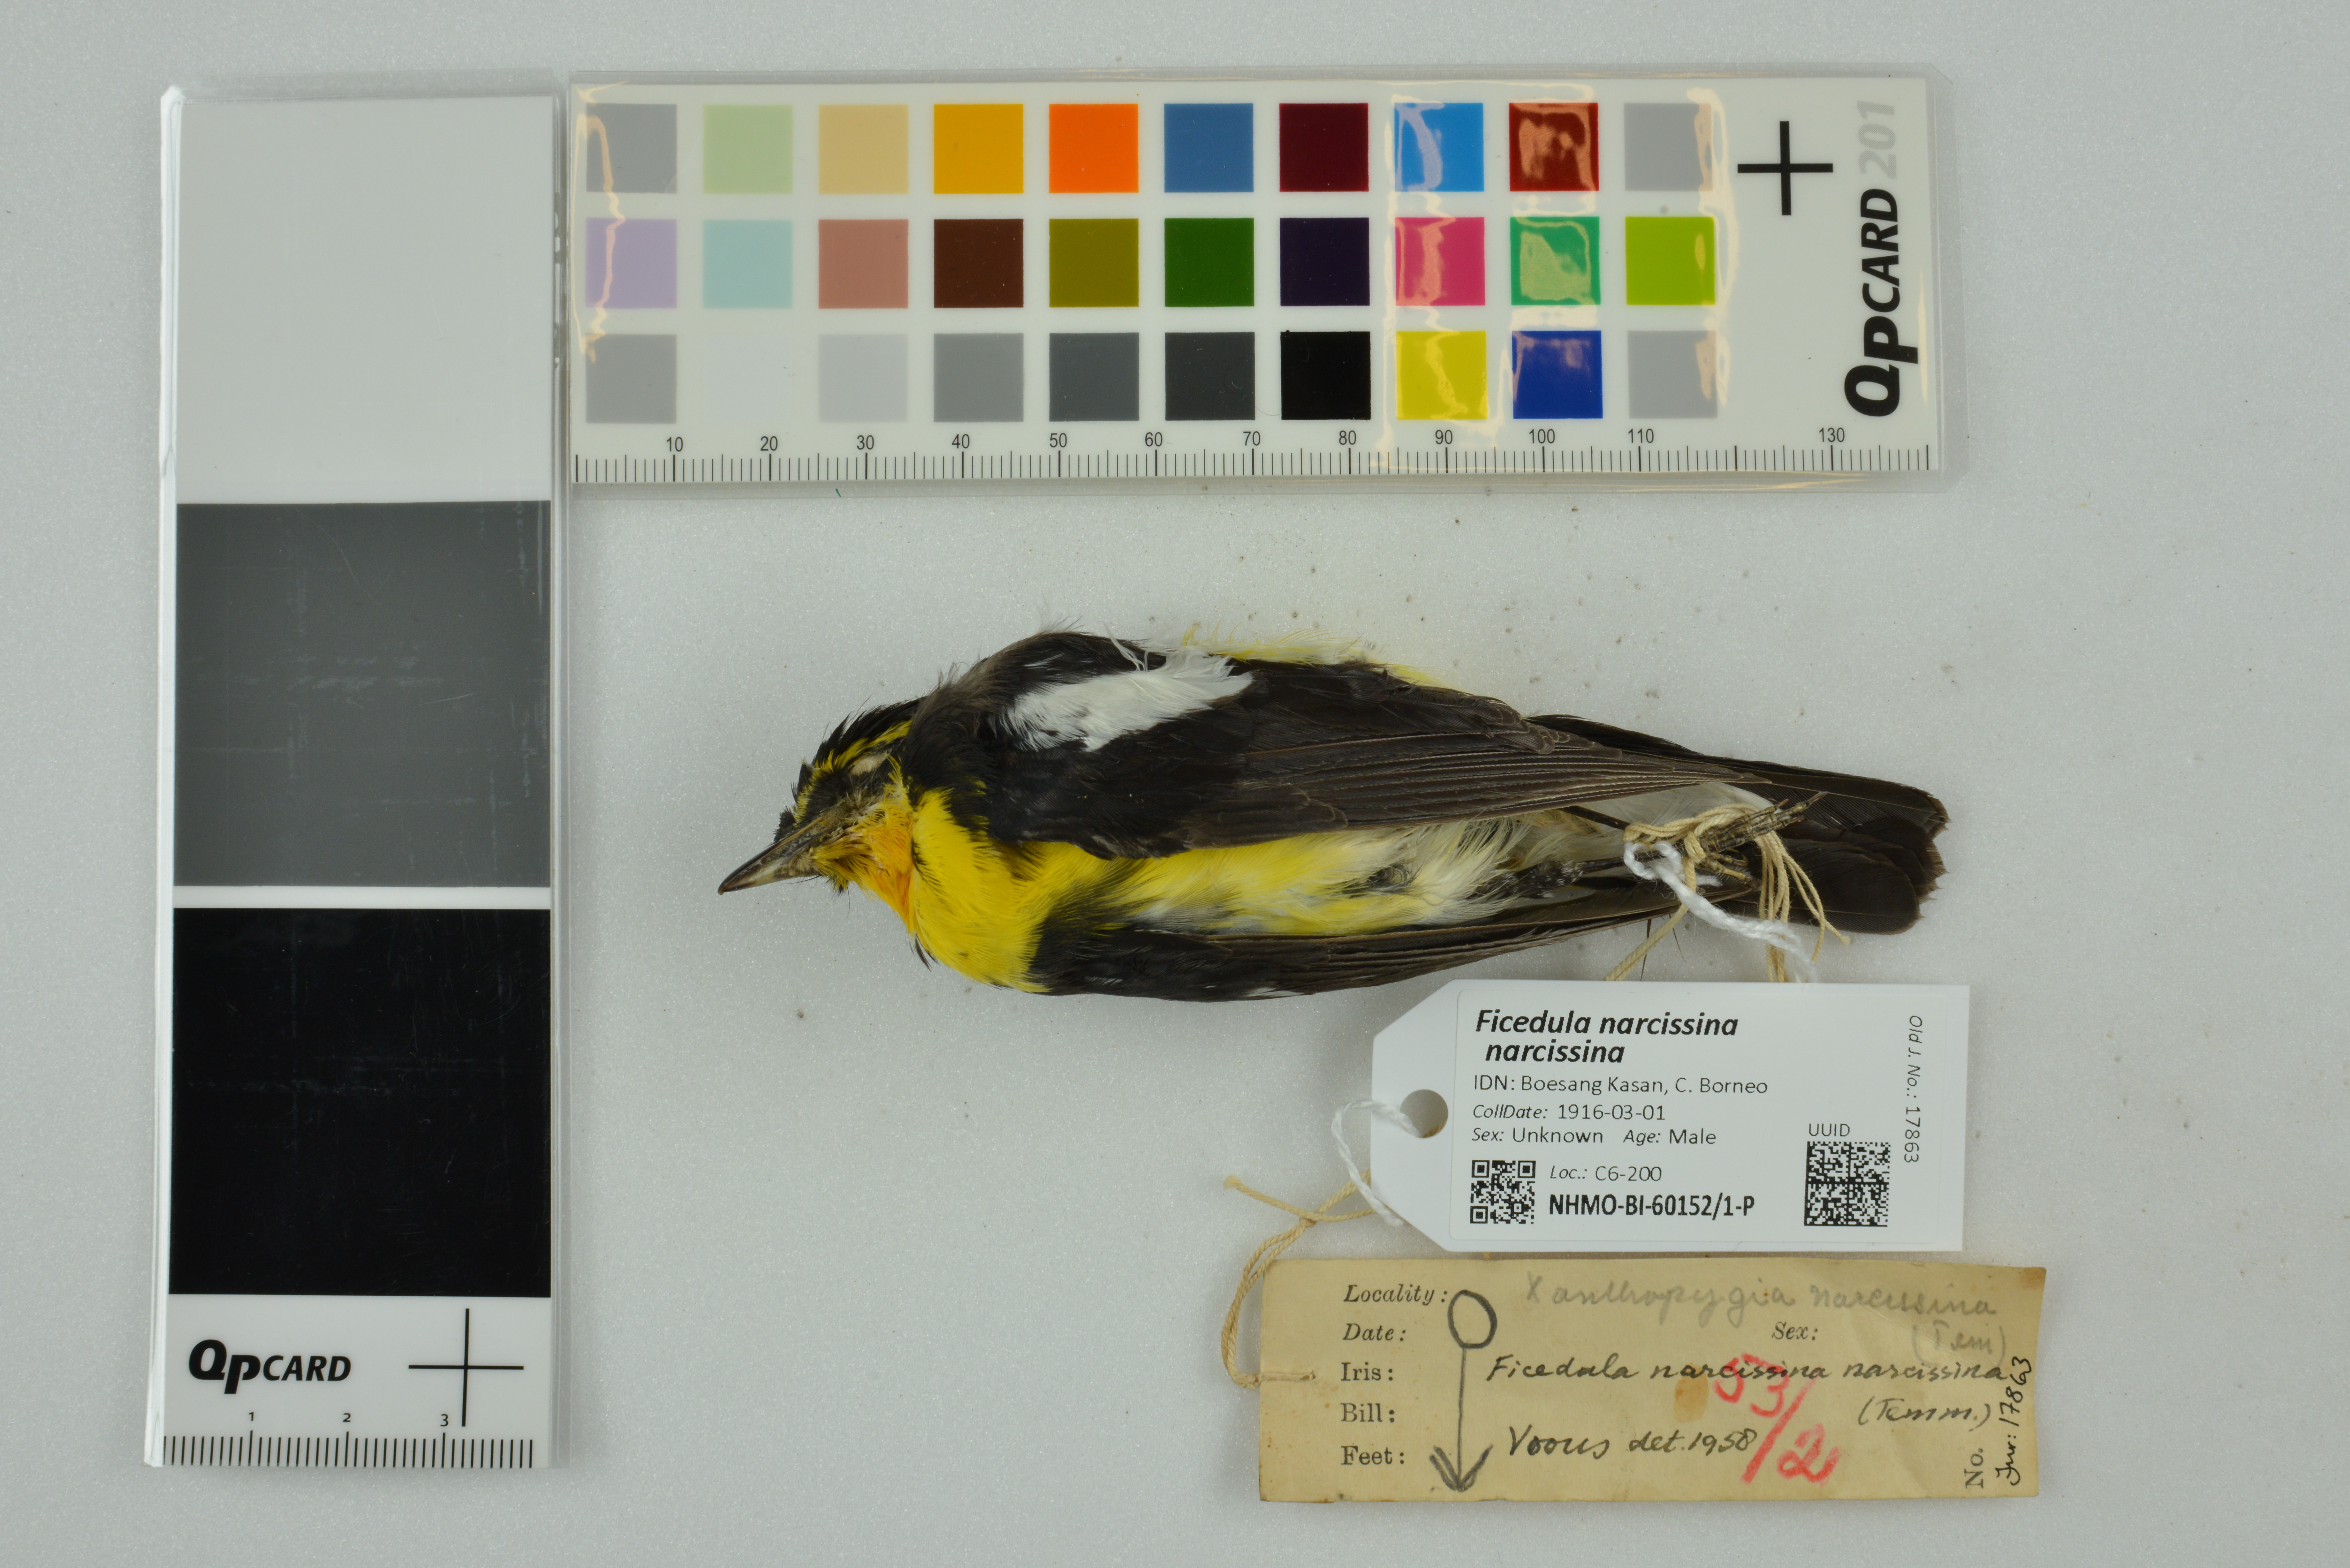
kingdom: Animalia
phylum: Chordata
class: Aves
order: Passeriformes
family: Muscicapidae
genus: Ficedula
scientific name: Ficedula narcissina
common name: Narcissus flycatcher
